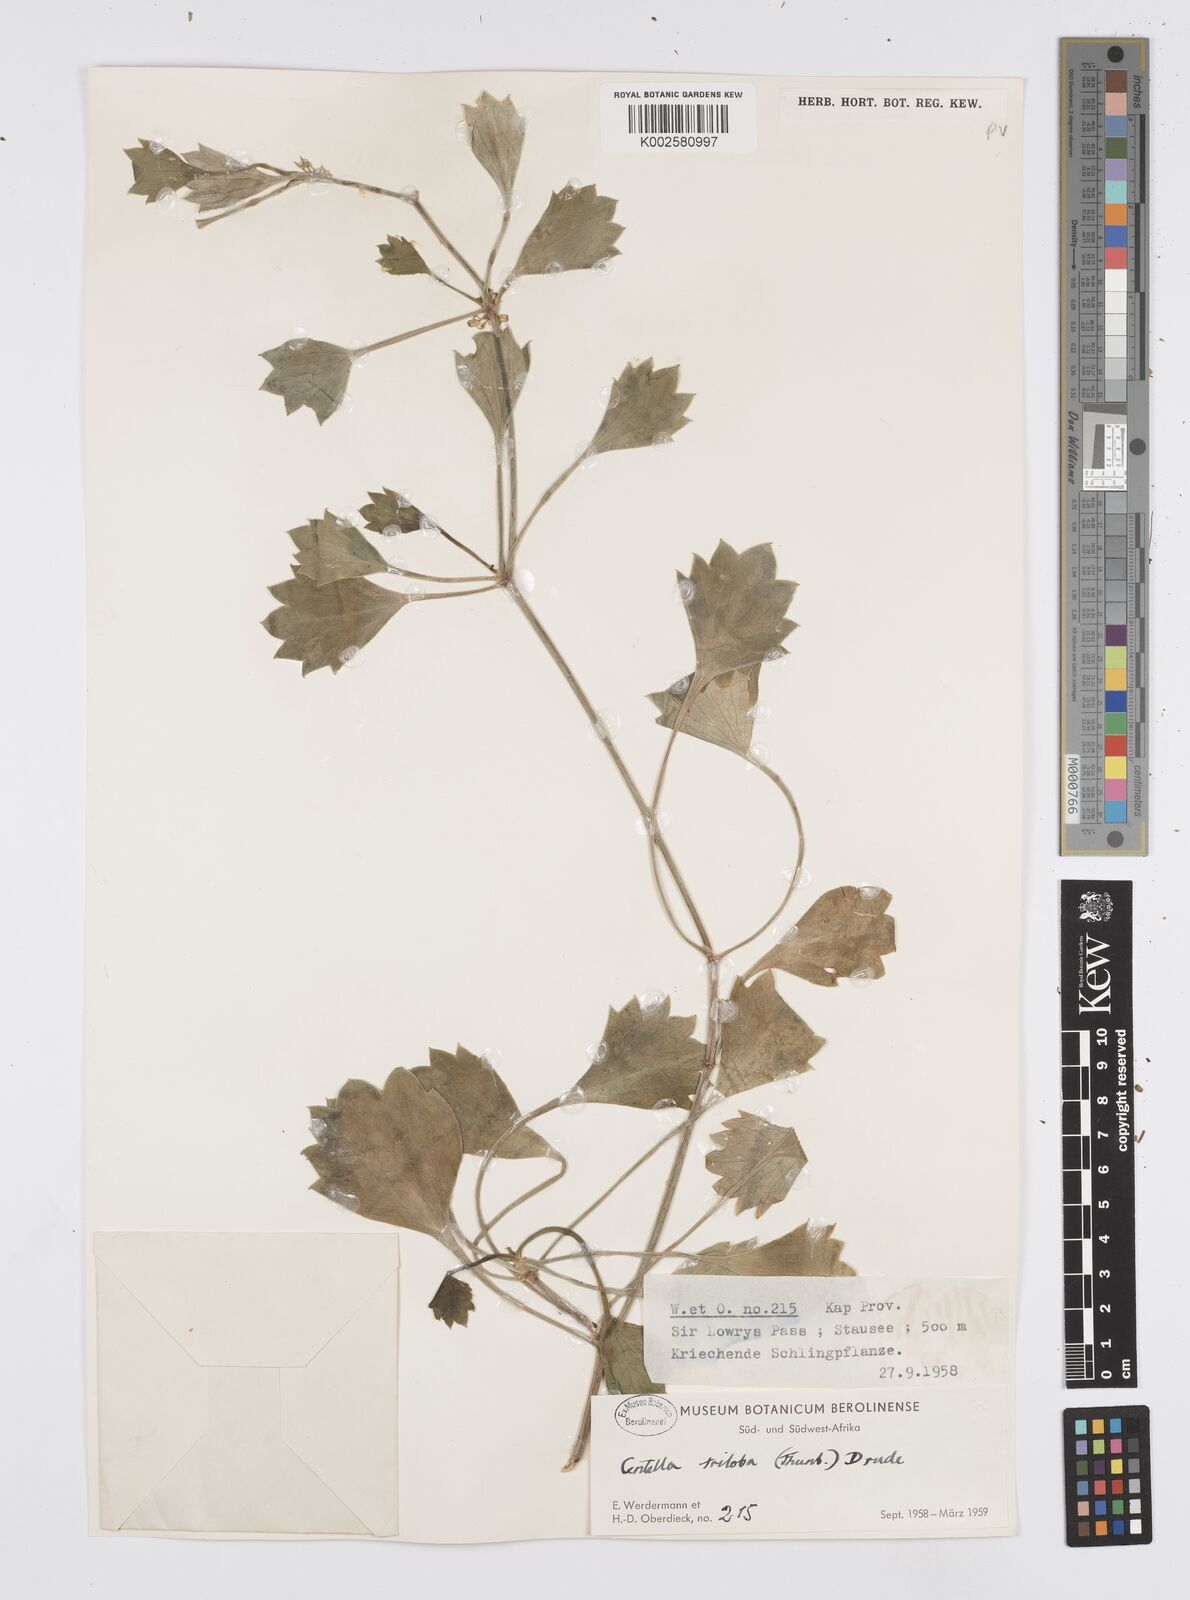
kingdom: Plantae
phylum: Tracheophyta
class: Magnoliopsida
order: Apiales
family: Apiaceae
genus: Centella
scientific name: Centella triloba
